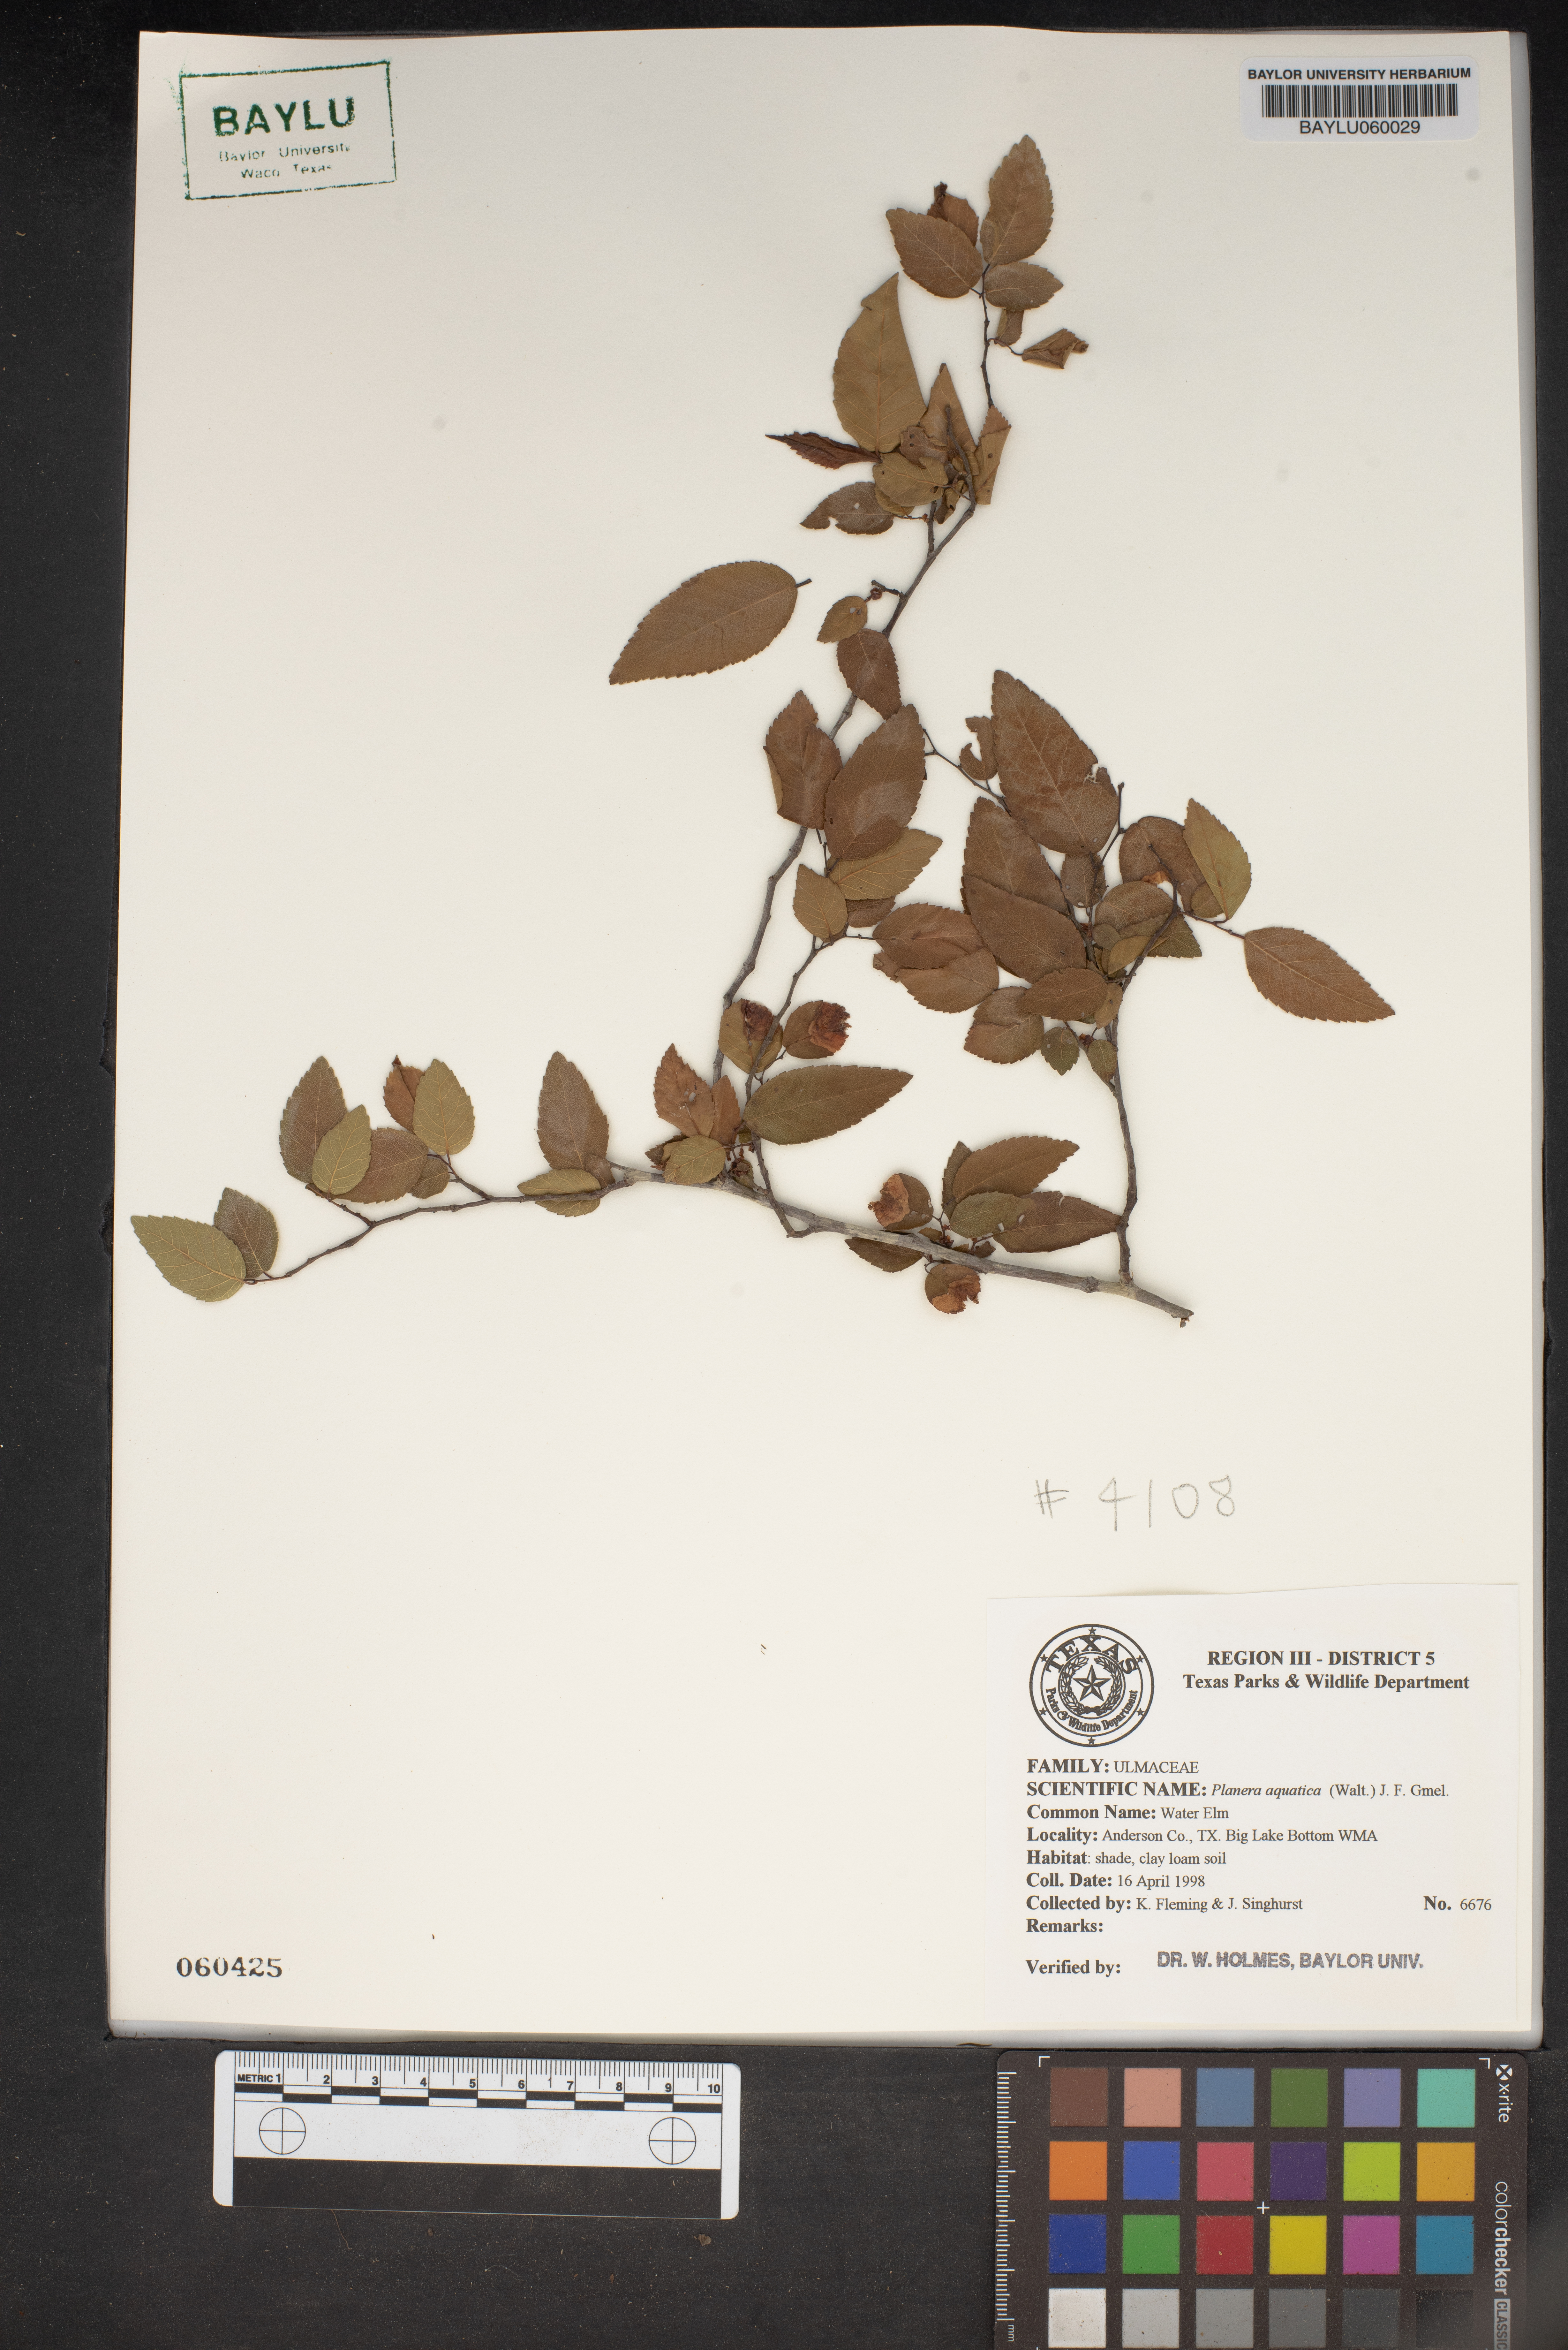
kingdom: Plantae
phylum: Tracheophyta
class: Magnoliopsida
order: Rosales
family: Ulmaceae
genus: Planera
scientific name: Planera aquatica
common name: Water-elm
